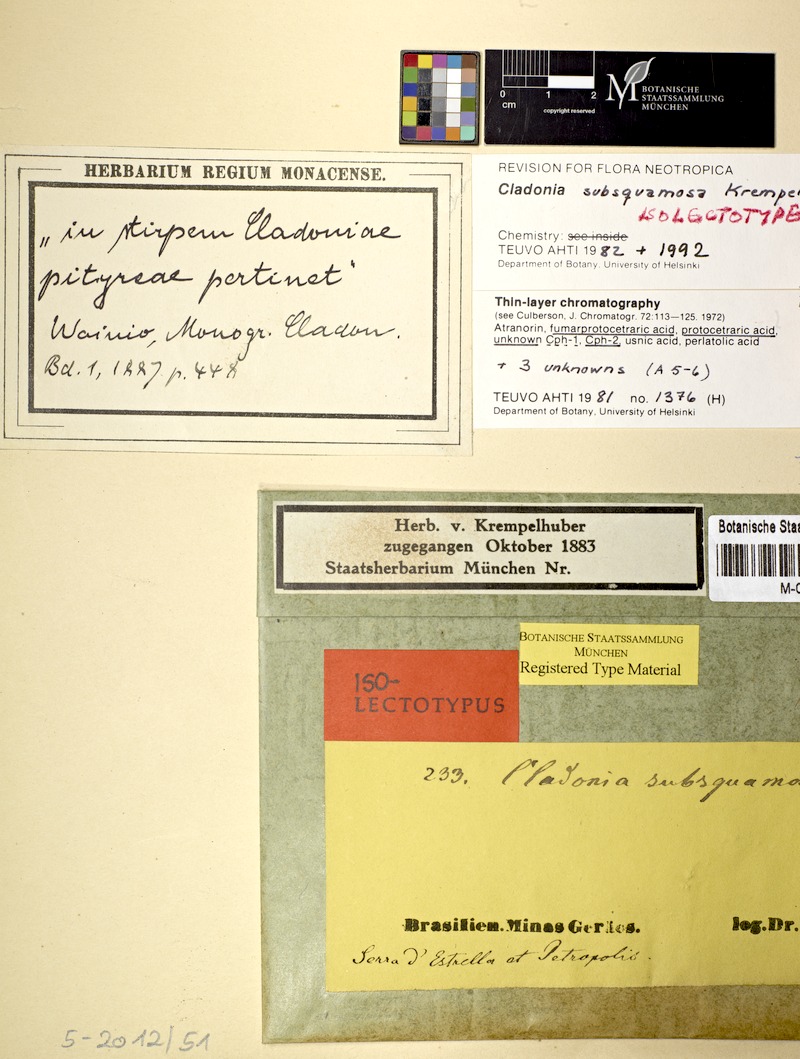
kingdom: Fungi
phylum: Ascomycota
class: Lecanoromycetes
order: Lecanorales
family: Cladoniaceae
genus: Cladonia
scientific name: Cladonia subsquamosa
